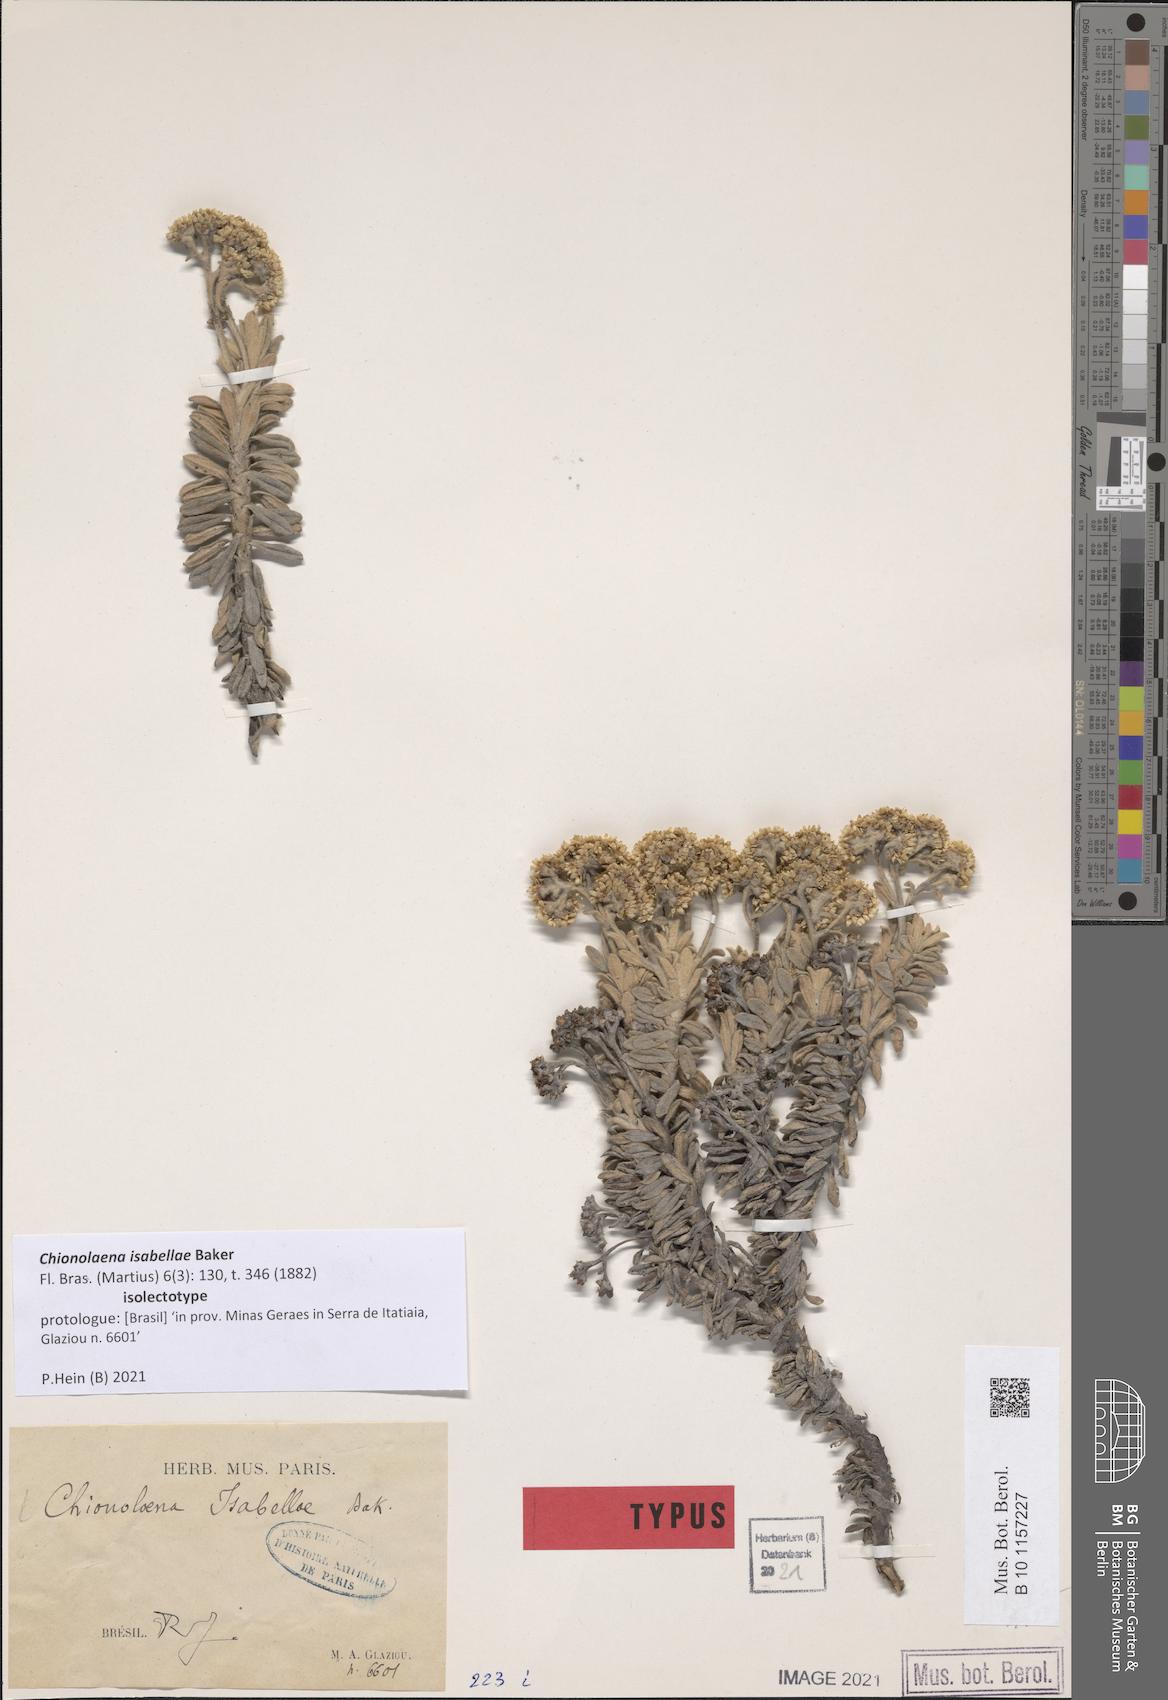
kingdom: Plantae
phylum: Tracheophyta
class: Magnoliopsida
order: Asterales
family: Asteraceae
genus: Chionolaena
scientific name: Chionolaena isabellae
